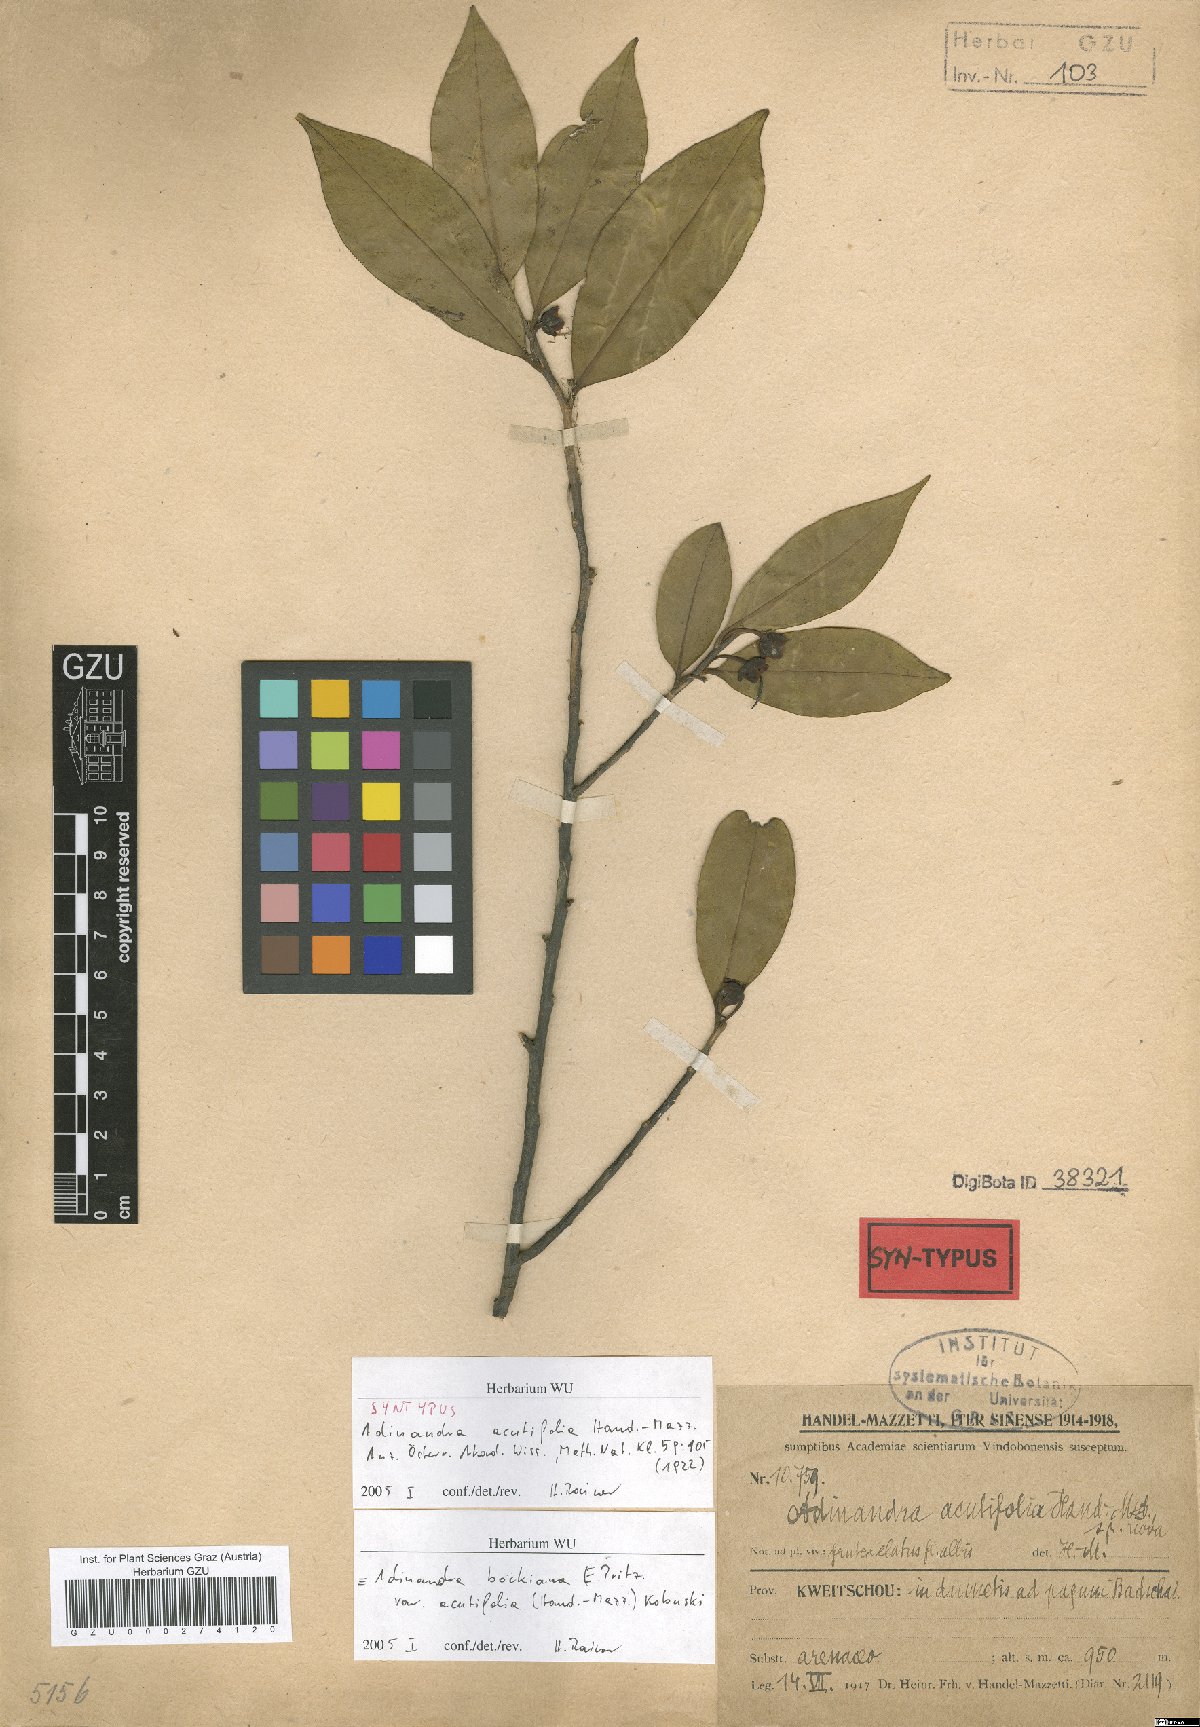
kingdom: Plantae
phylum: Tracheophyta
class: Magnoliopsida
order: Ericales
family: Pentaphylacaceae
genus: Adinandra
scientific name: Adinandra bockiana
